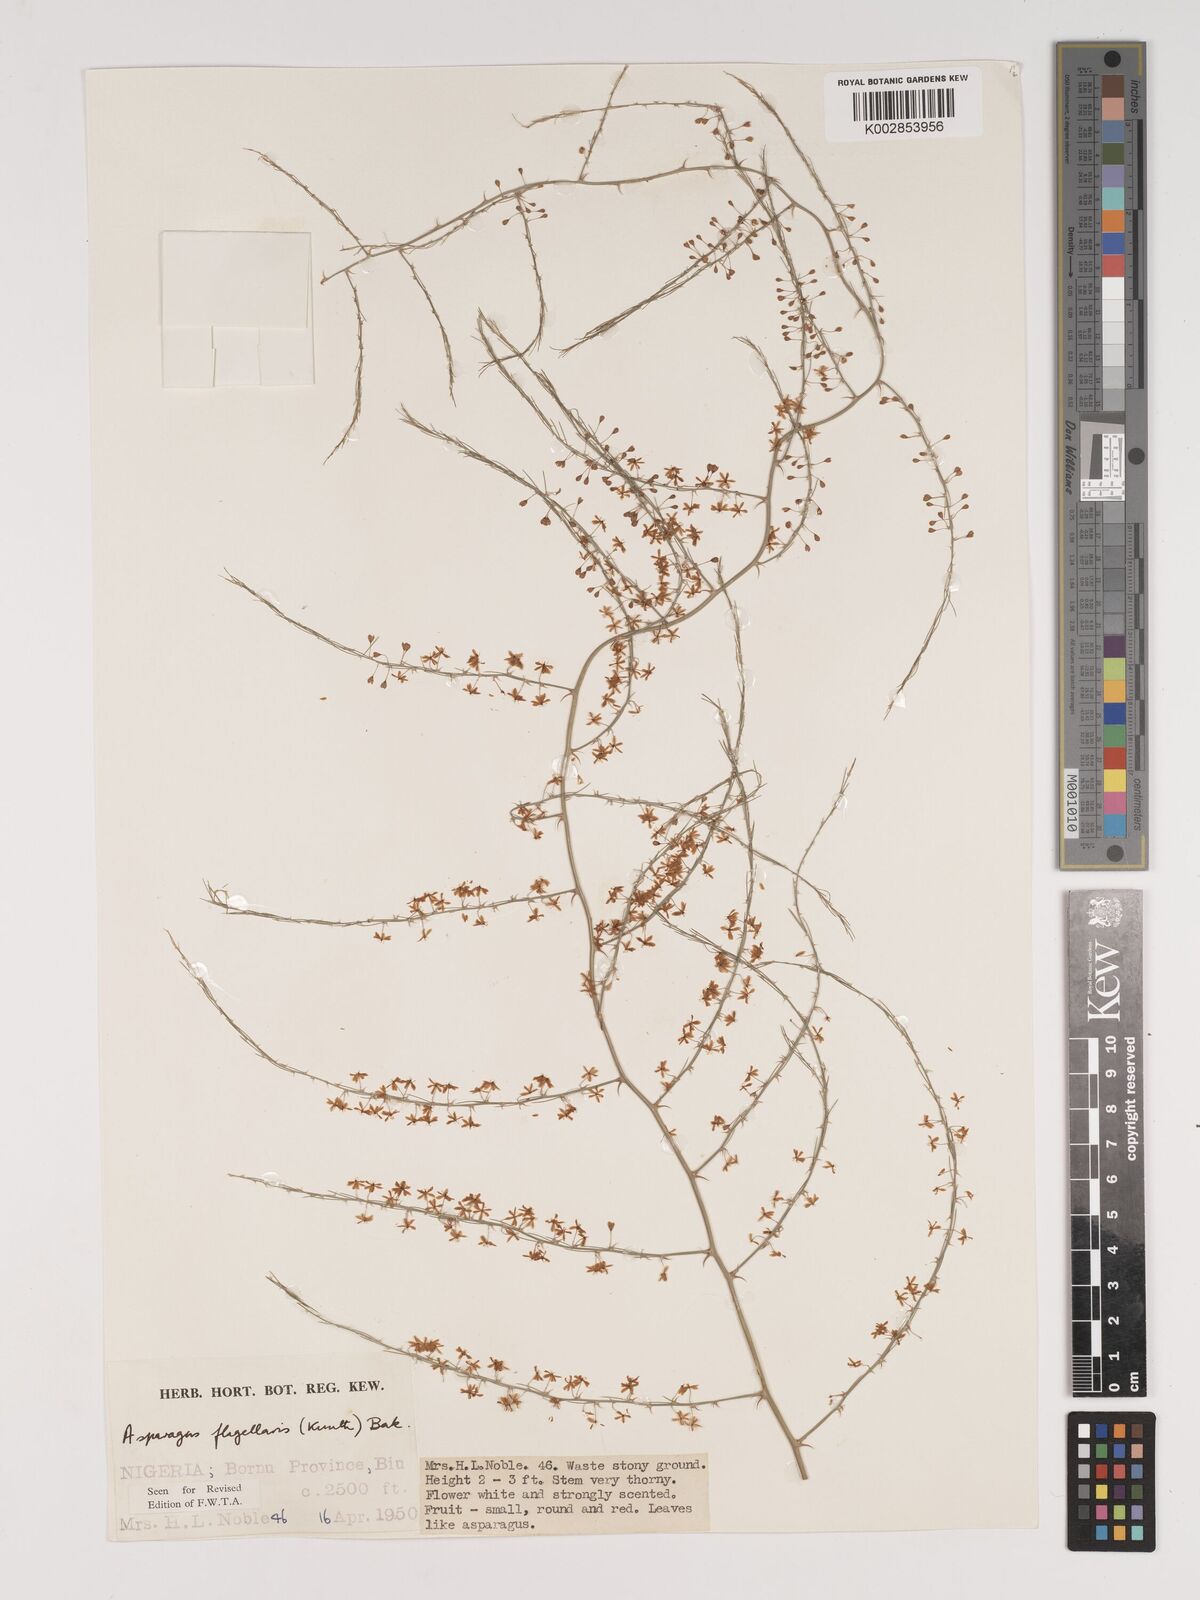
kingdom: Plantae
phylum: Tracheophyta
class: Liliopsida
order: Asparagales
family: Asparagaceae
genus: Asparagus
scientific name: Asparagus flagellaris
